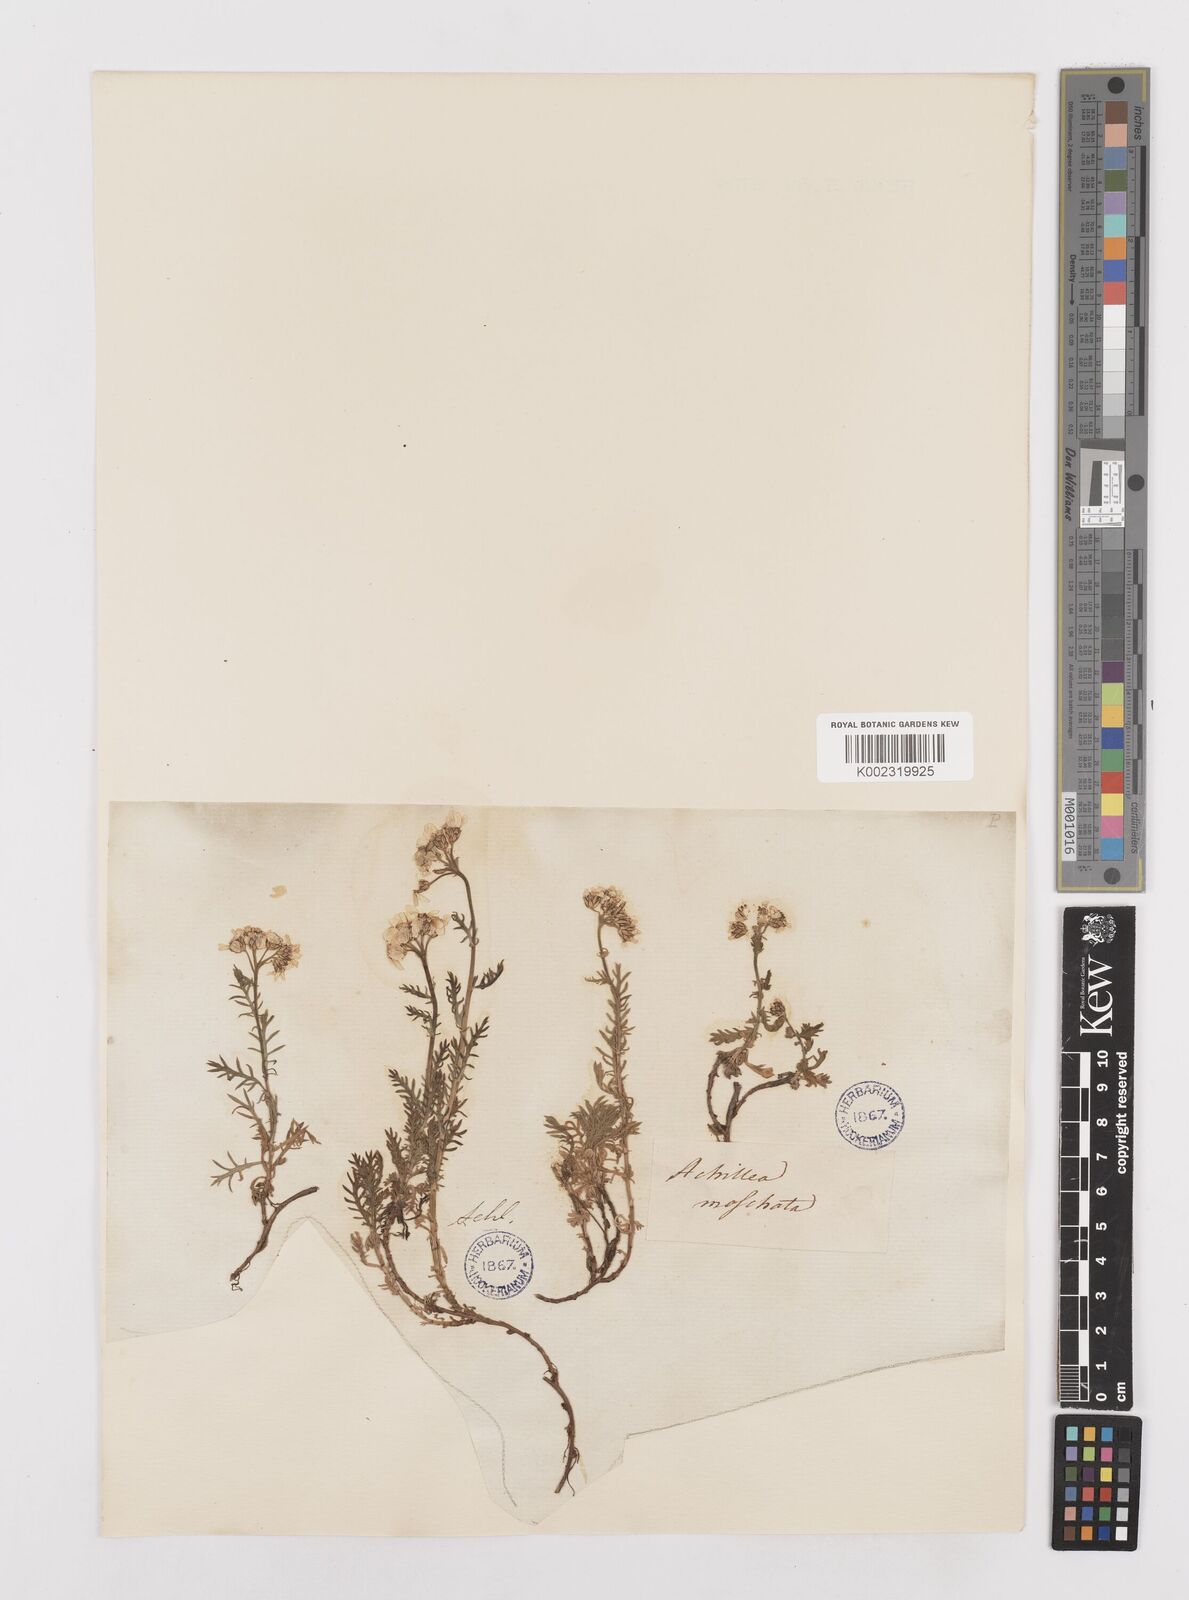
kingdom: Plantae
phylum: Tracheophyta
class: Magnoliopsida
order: Asterales
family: Asteraceae
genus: Achillea
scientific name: Achillea erba-rotta
